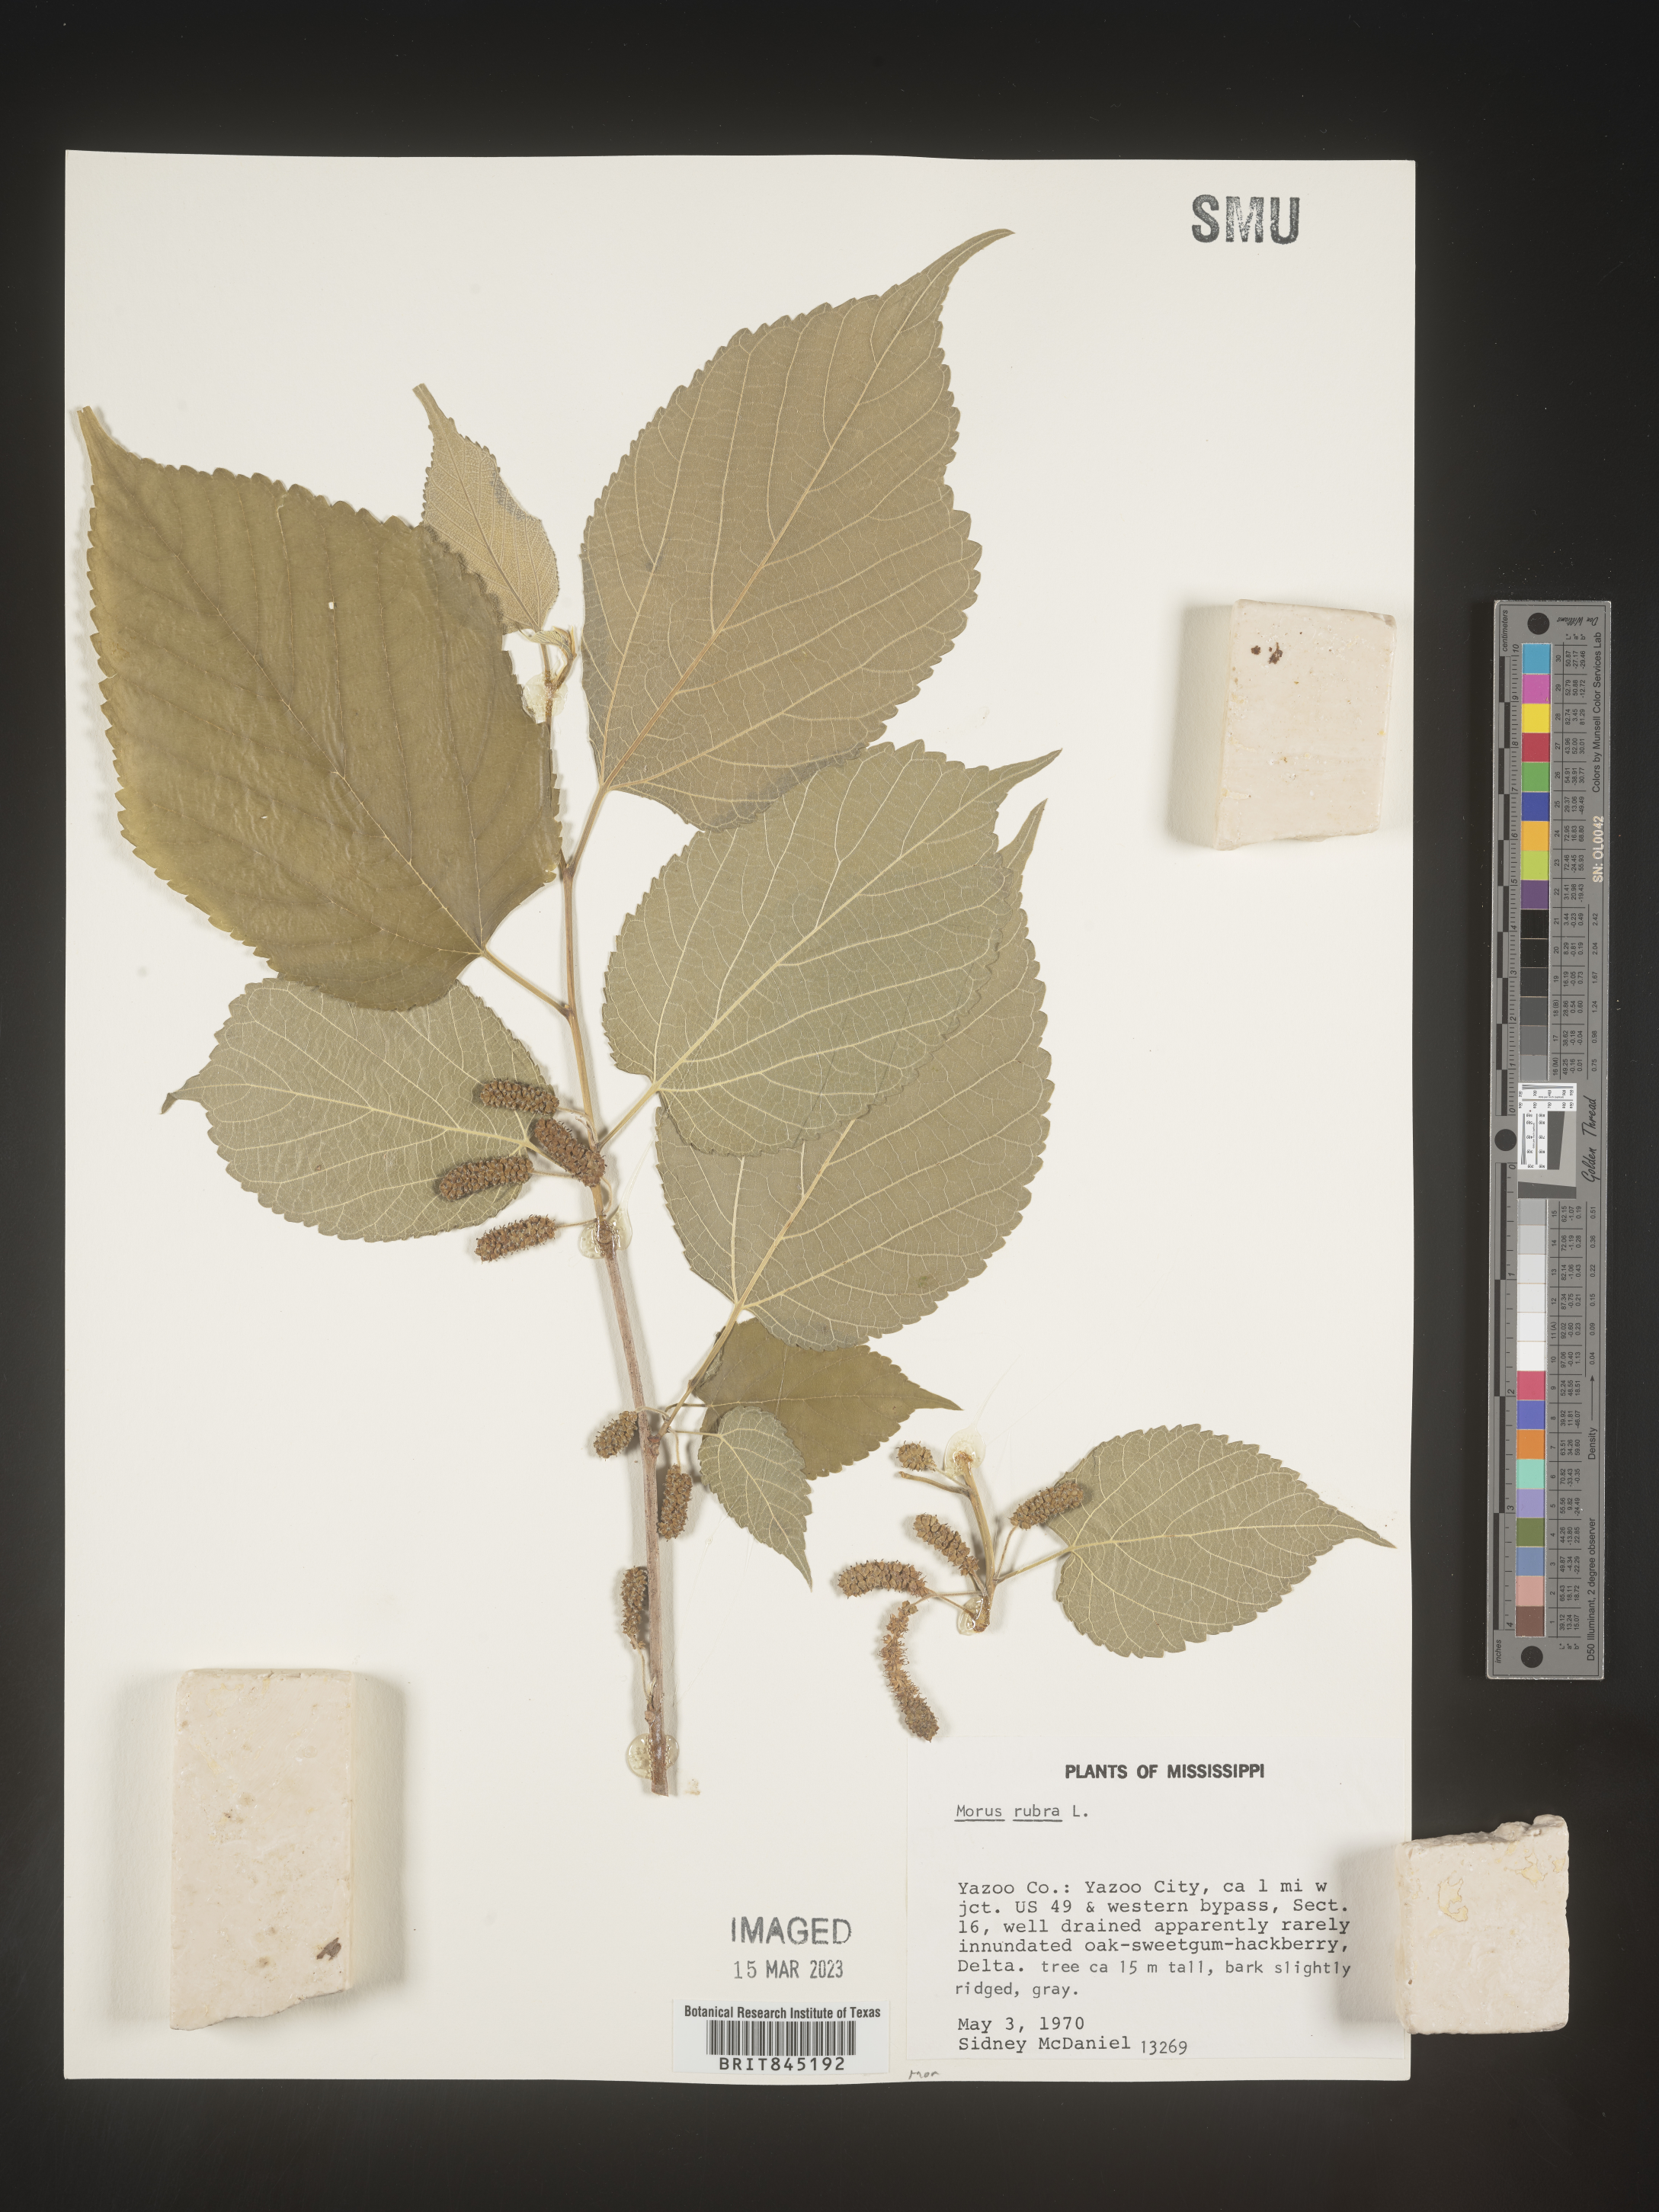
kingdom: Plantae
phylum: Tracheophyta
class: Magnoliopsida
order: Rosales
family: Moraceae
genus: Morus
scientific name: Morus rubra
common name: Red mulberry
